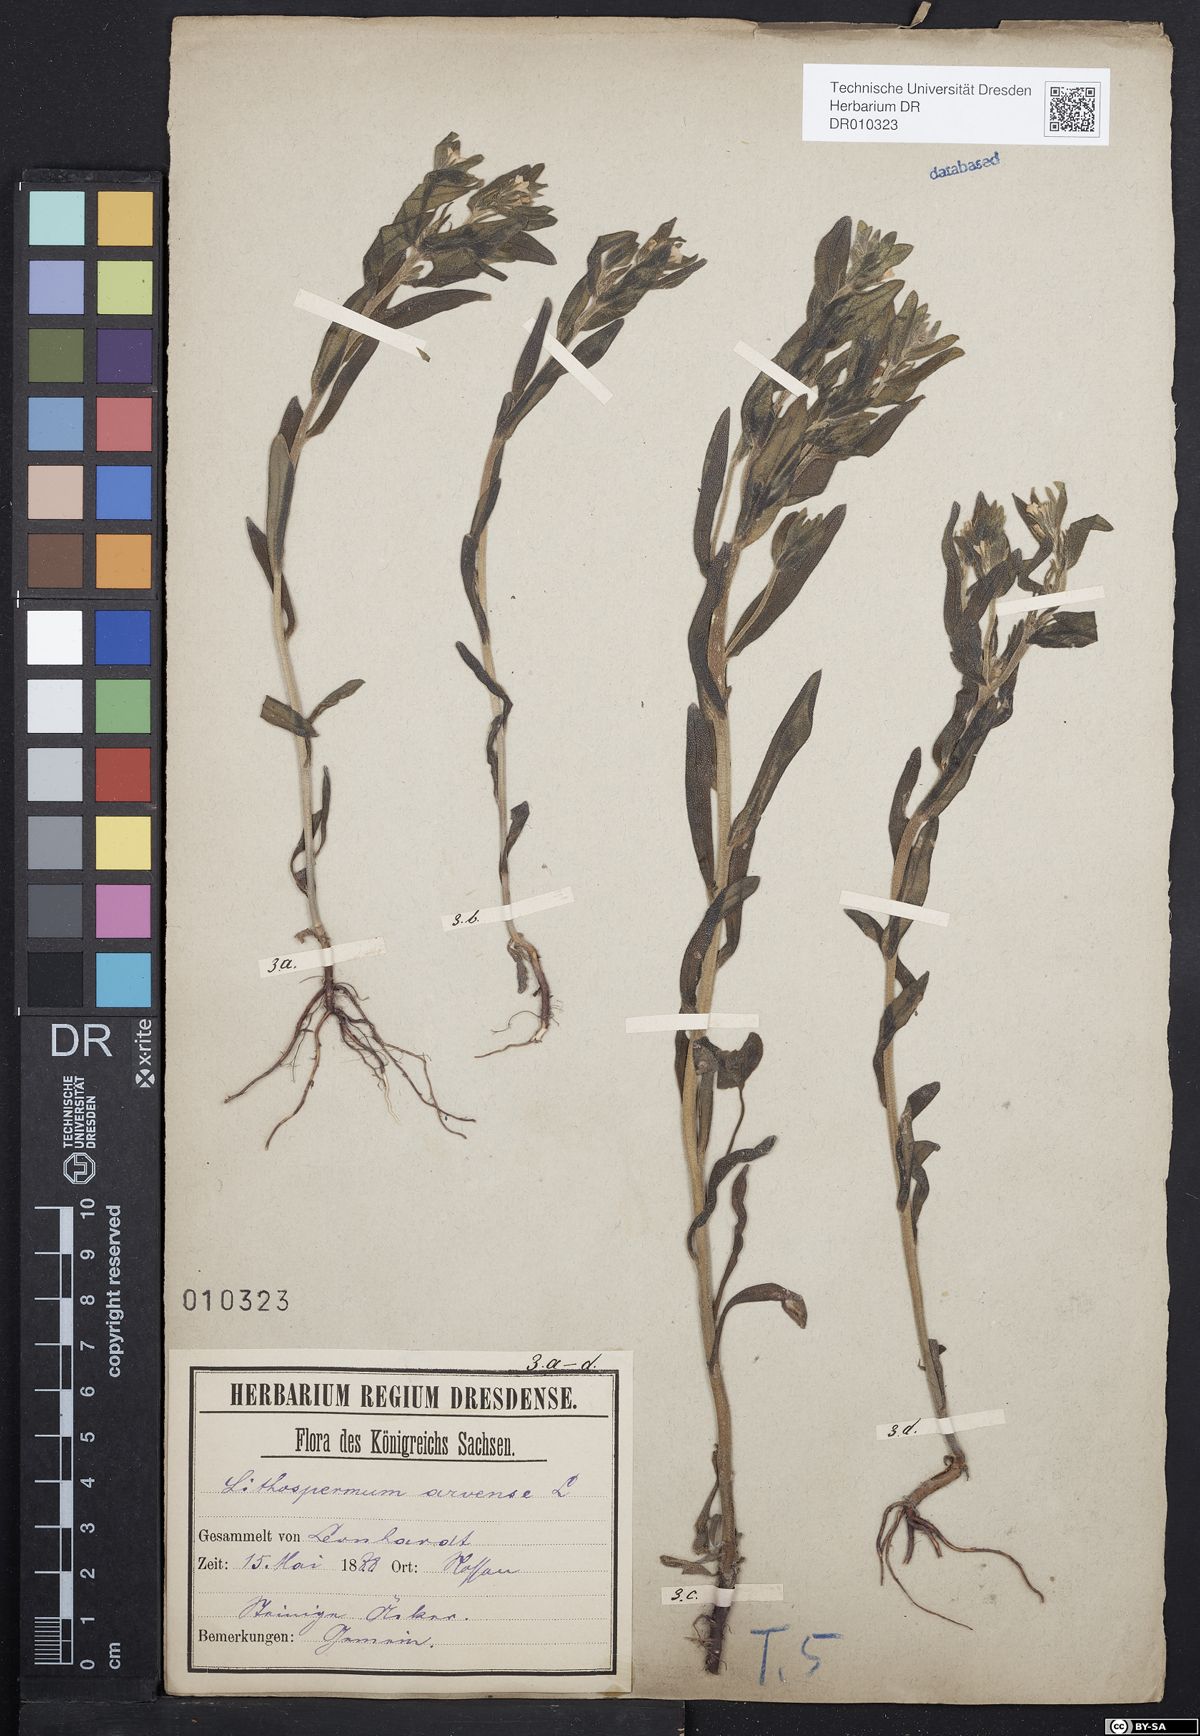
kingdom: Plantae
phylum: Tracheophyta
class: Magnoliopsida
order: Boraginales
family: Boraginaceae
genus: Buglossoides
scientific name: Buglossoides arvensis
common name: Corn gromwell
